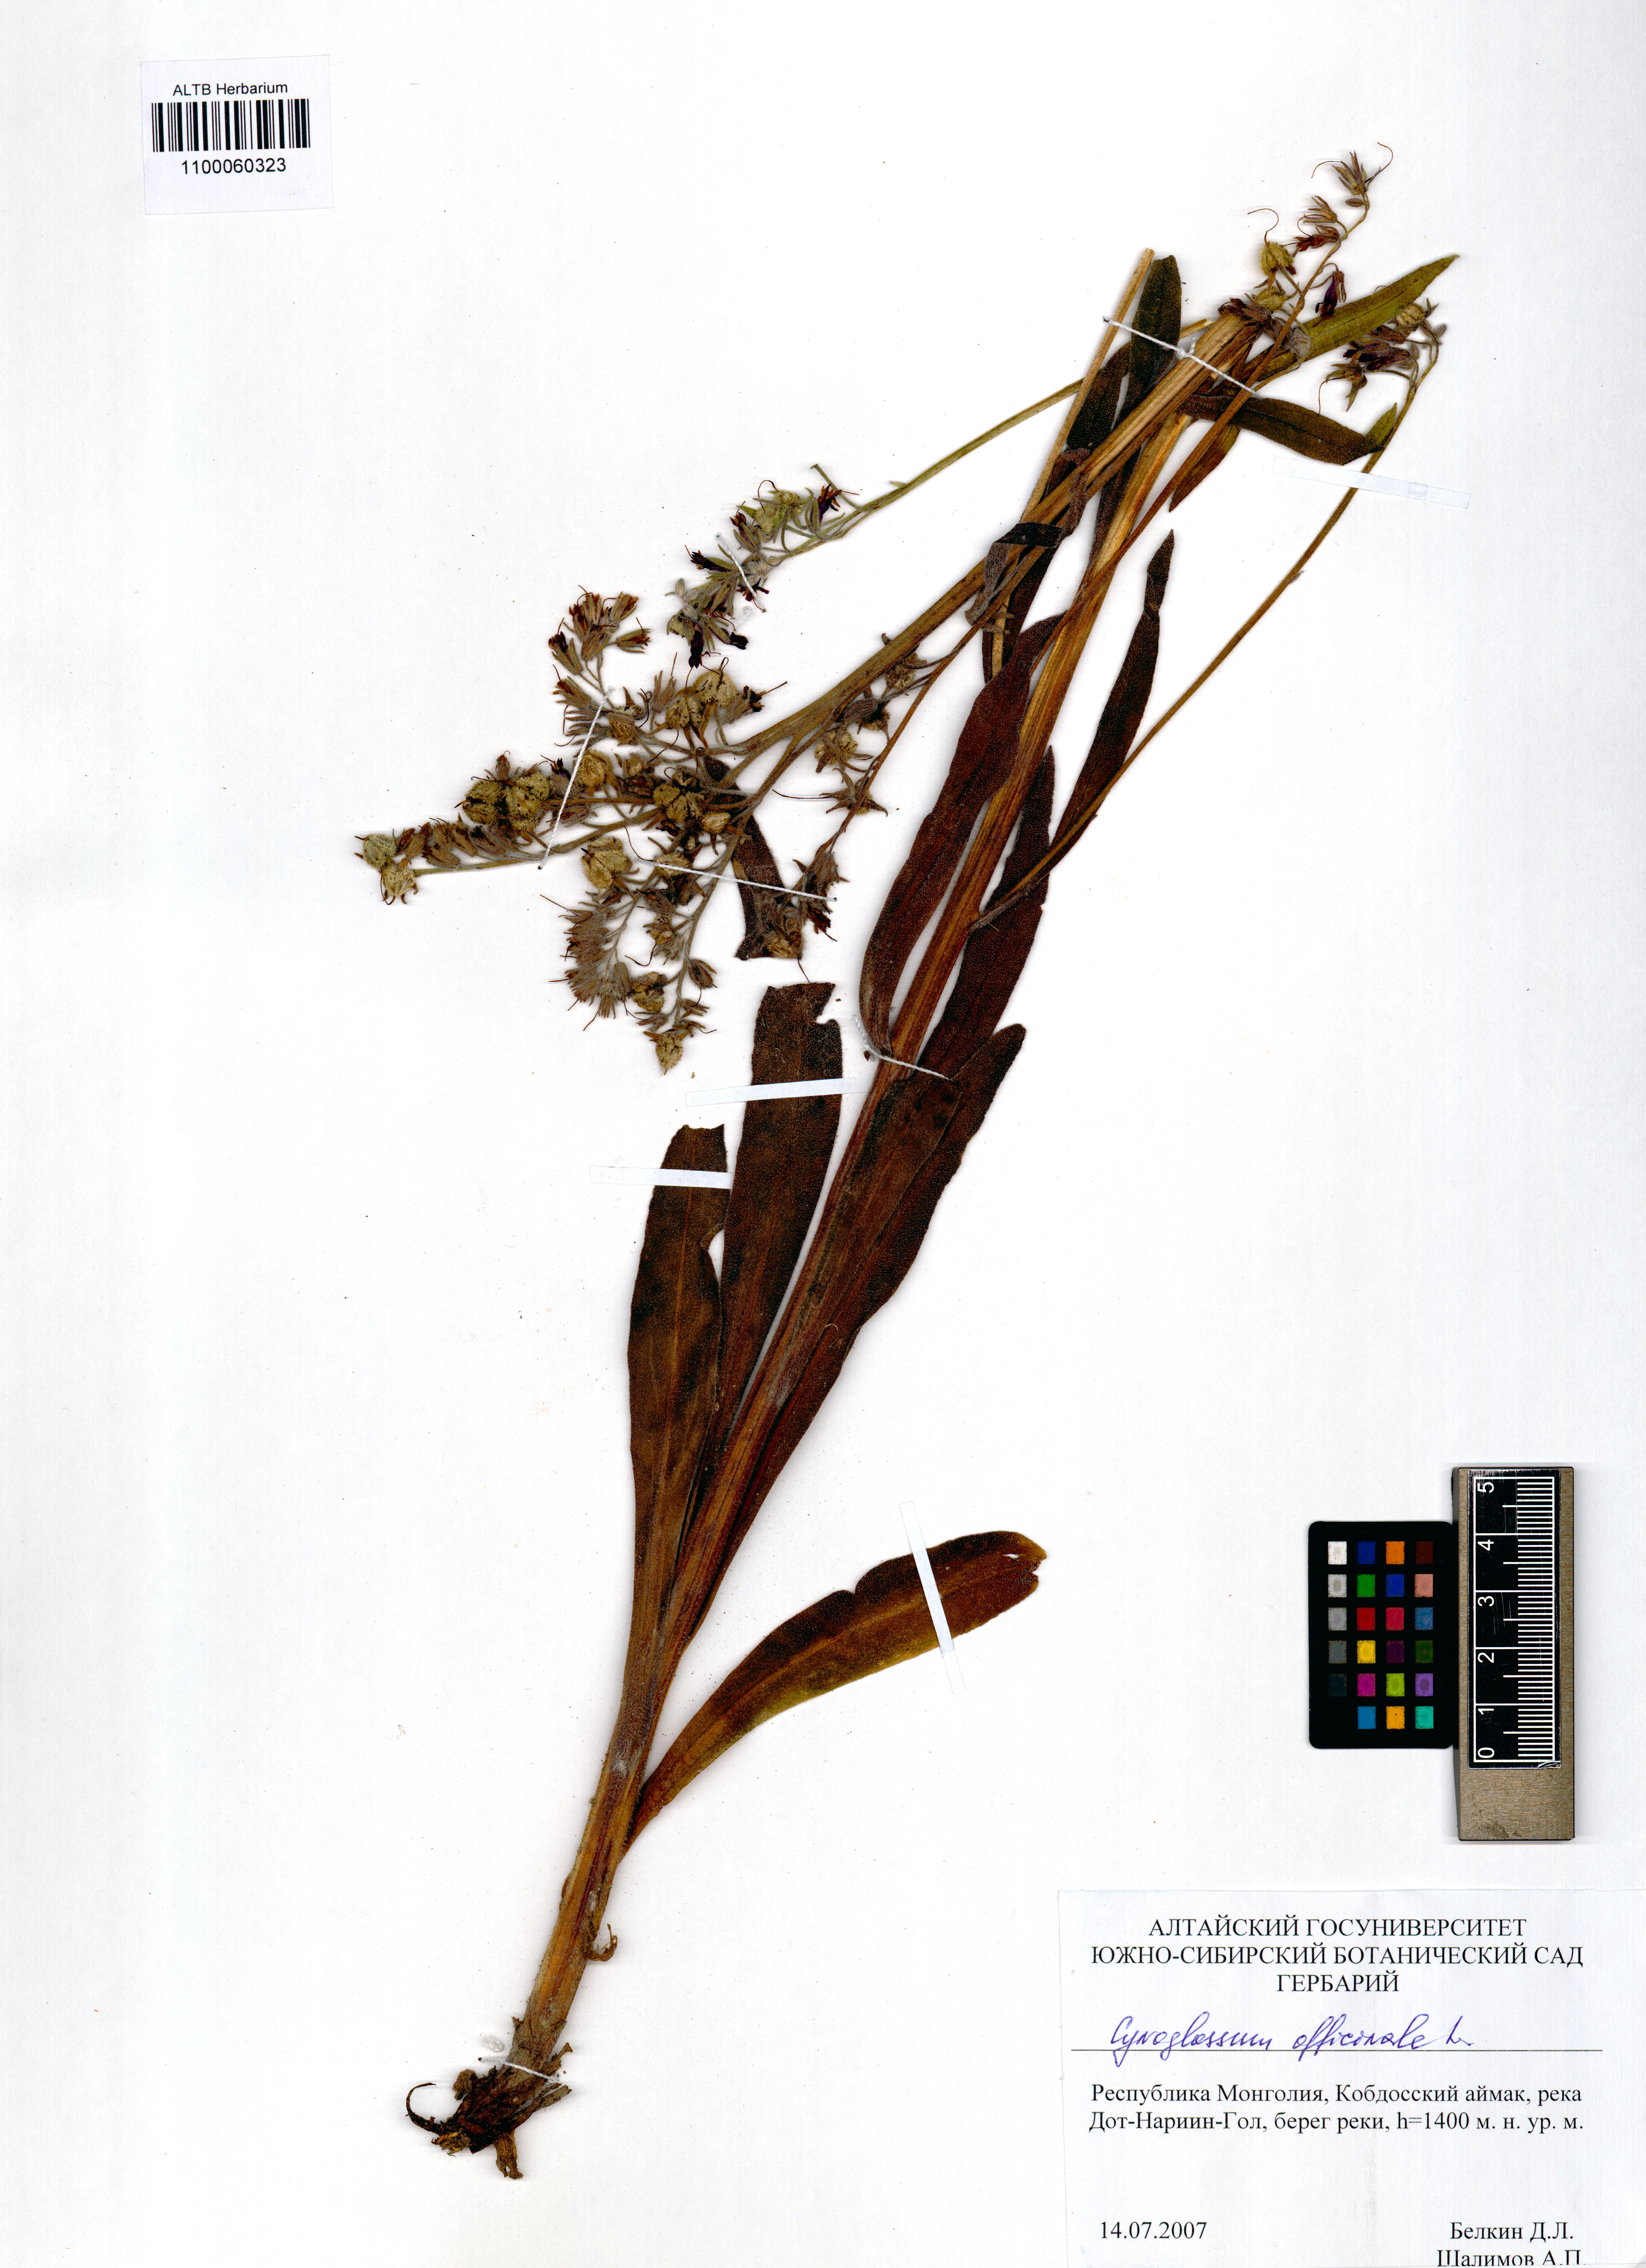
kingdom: Plantae
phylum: Tracheophyta
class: Magnoliopsida
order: Boraginales
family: Boraginaceae
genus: Cynoglossum
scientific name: Cynoglossum officinale
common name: Hound's-tongue
